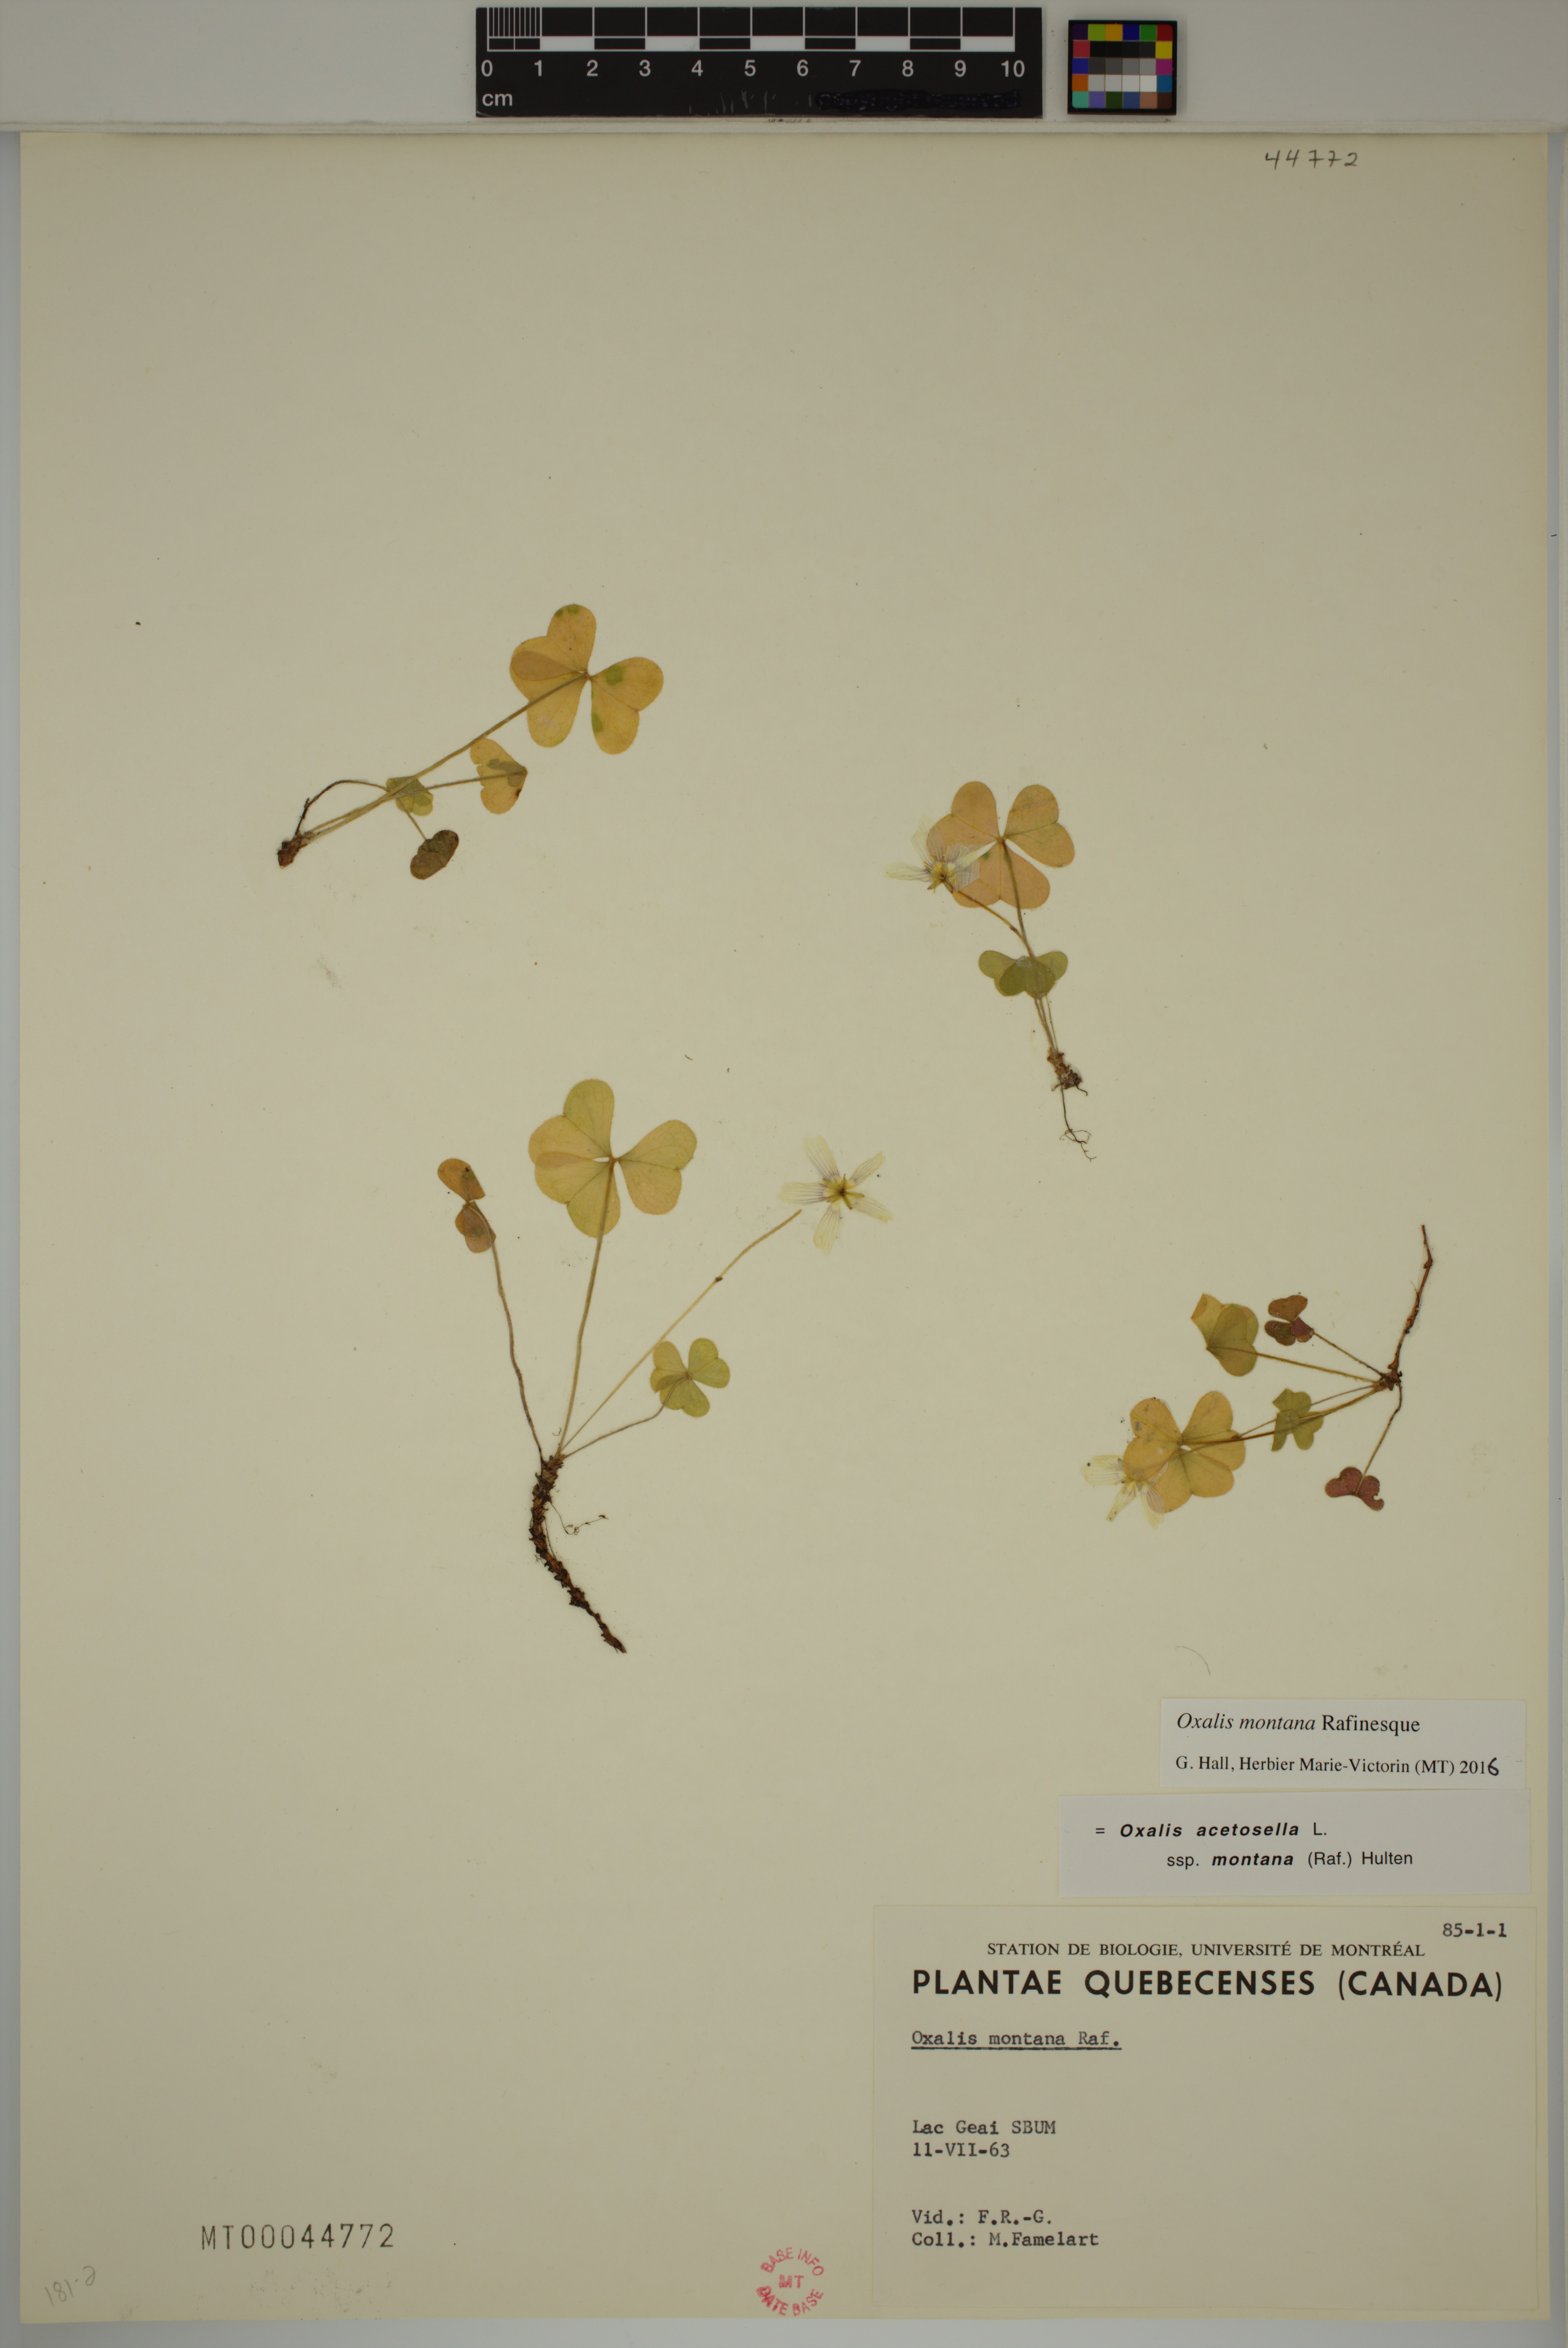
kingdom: Plantae
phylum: Tracheophyta
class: Magnoliopsida
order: Oxalidales
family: Oxalidaceae
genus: Oxalis
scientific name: Oxalis montana
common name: American wood-sorrel
